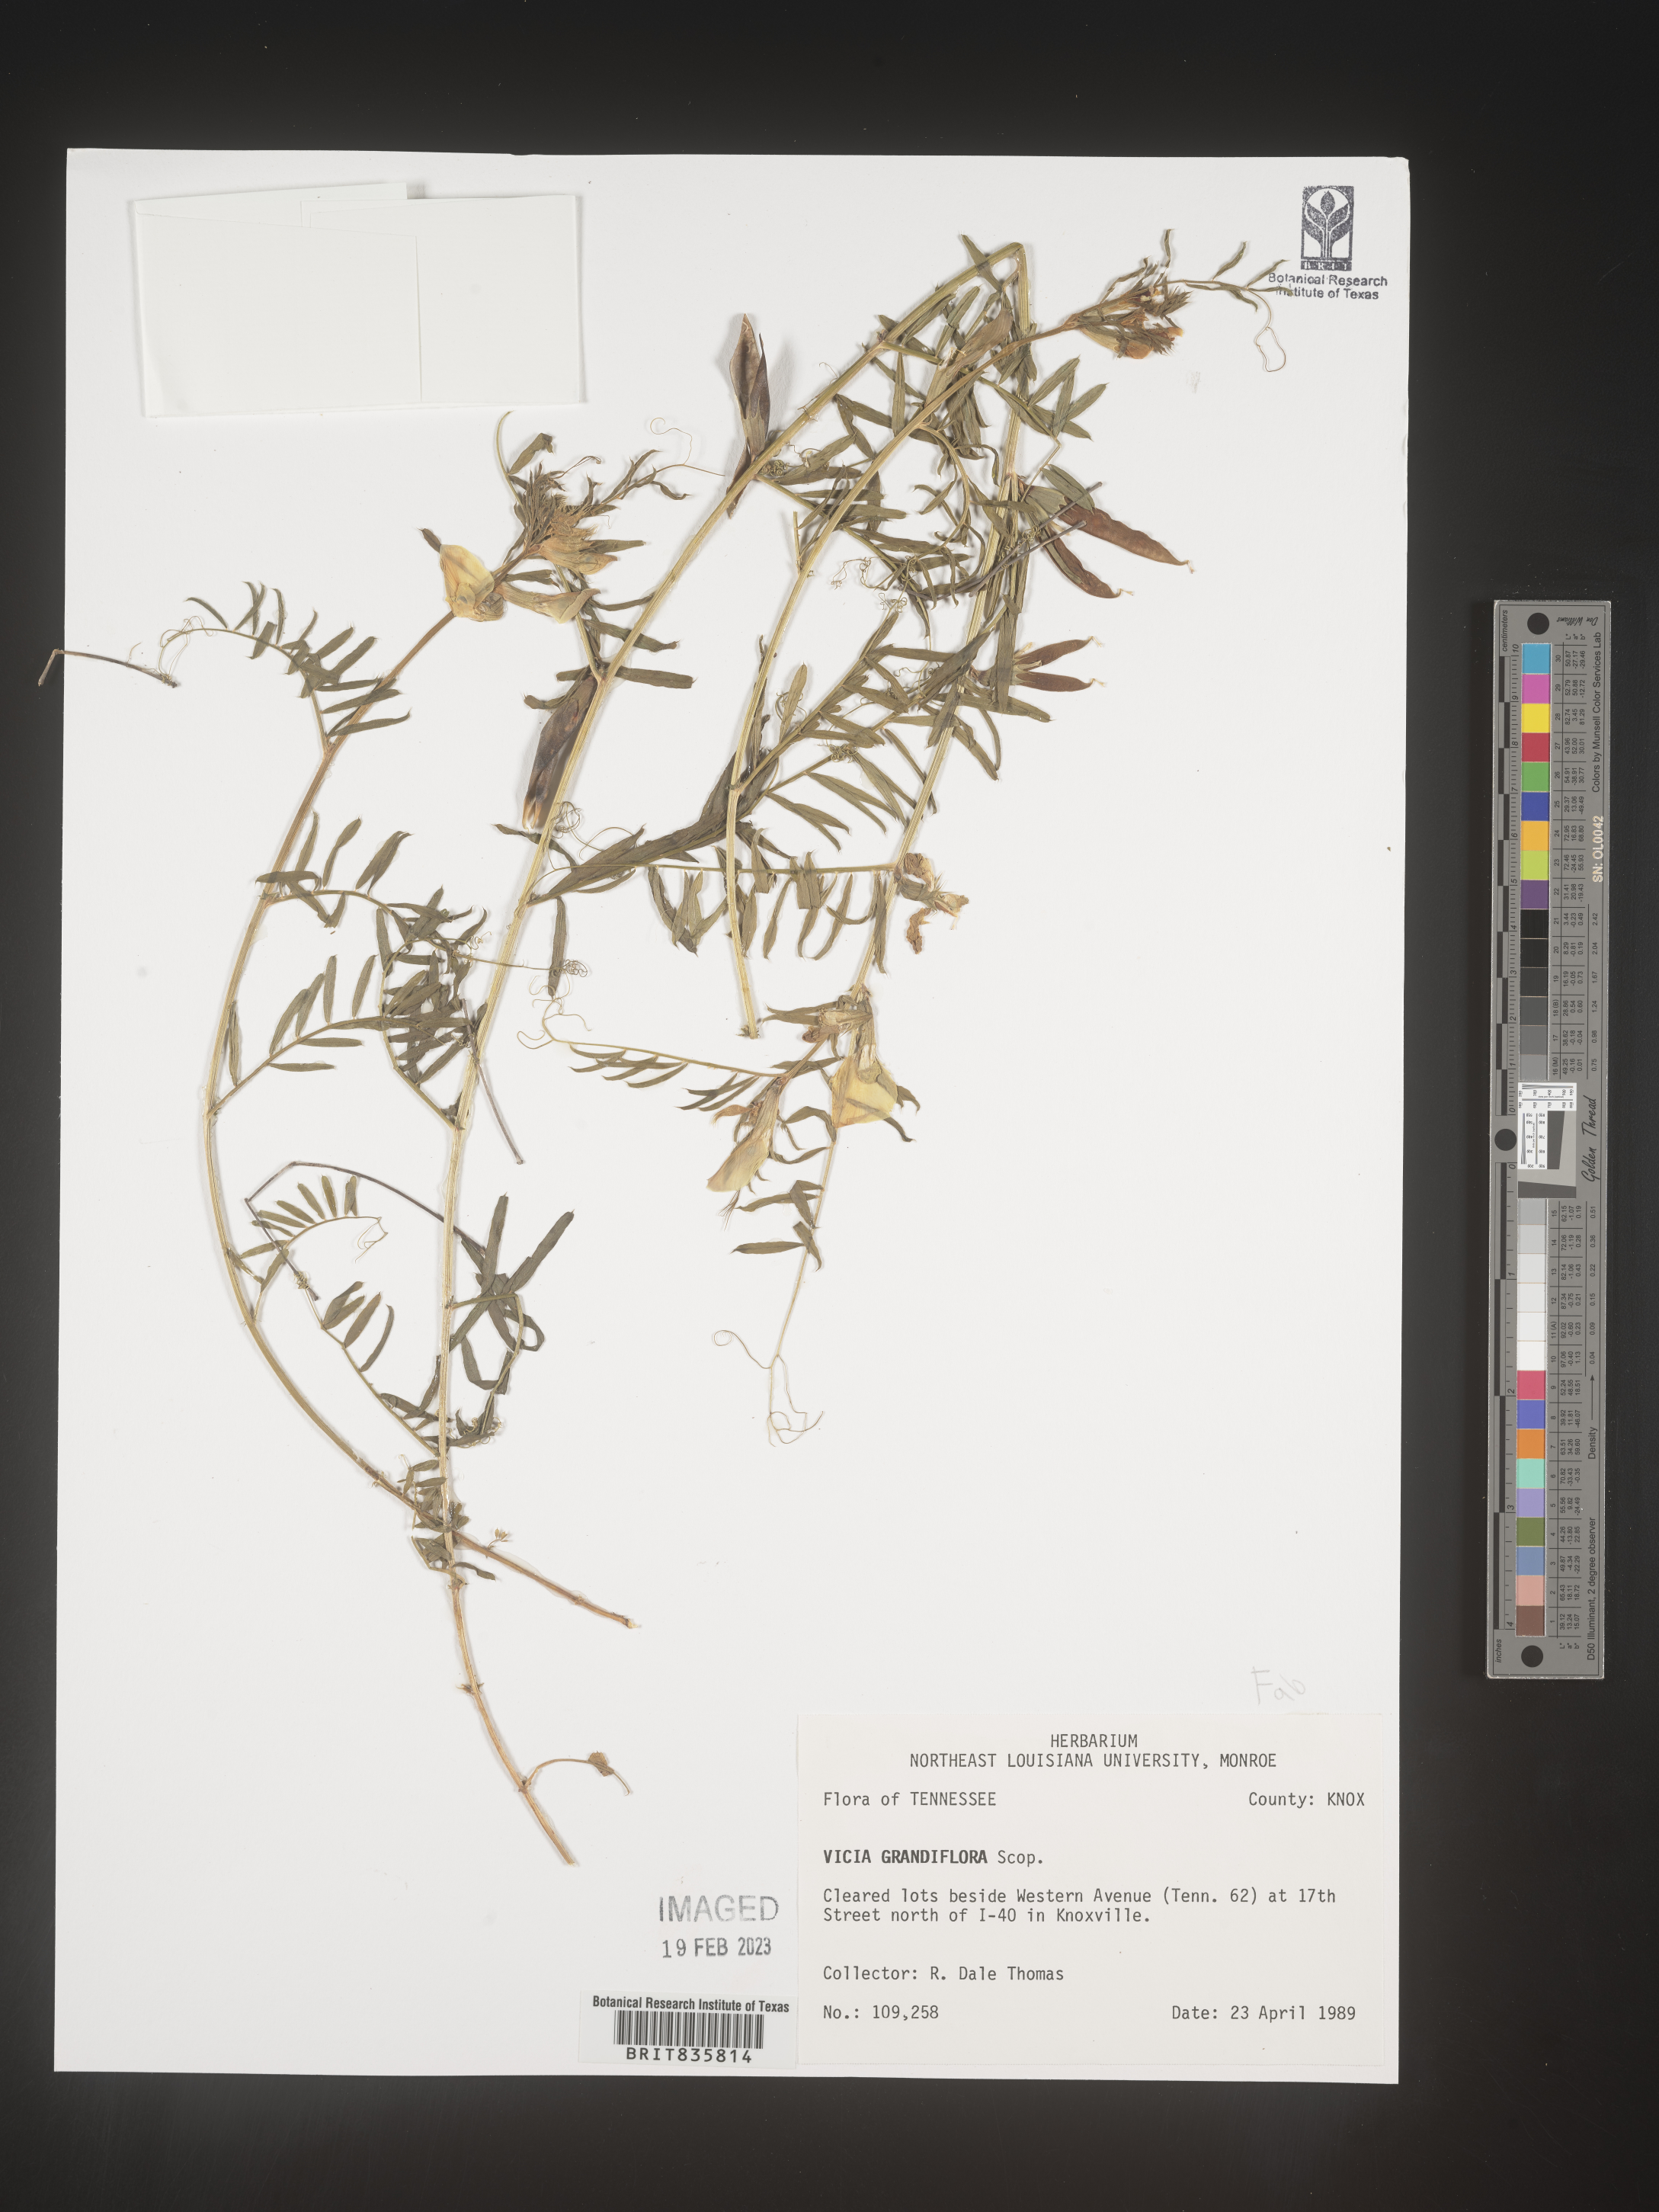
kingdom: Plantae
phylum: Tracheophyta
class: Magnoliopsida
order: Fabales
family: Fabaceae
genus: Vicia
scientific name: Vicia grandiflora
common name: Large yellow vetch
